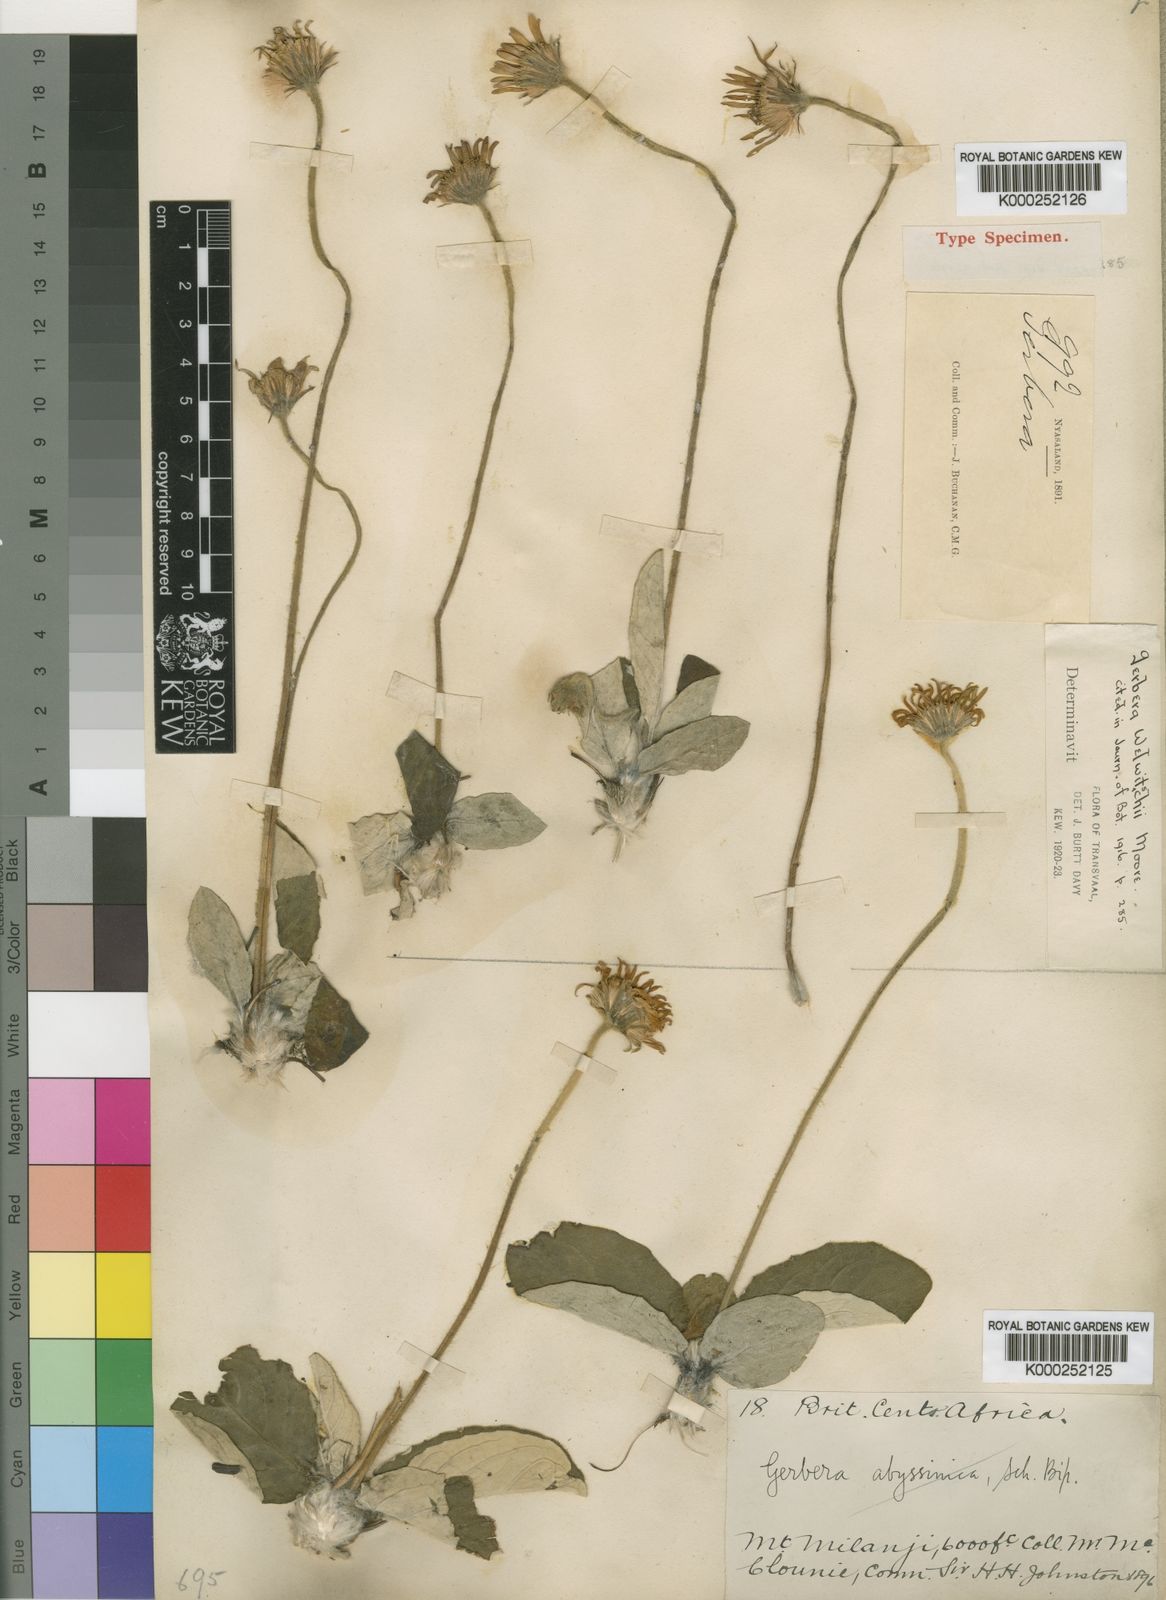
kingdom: Plantae
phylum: Tracheophyta
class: Magnoliopsida
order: Asterales
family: Asteraceae
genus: Gerbera
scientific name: Gerbera ambigua
